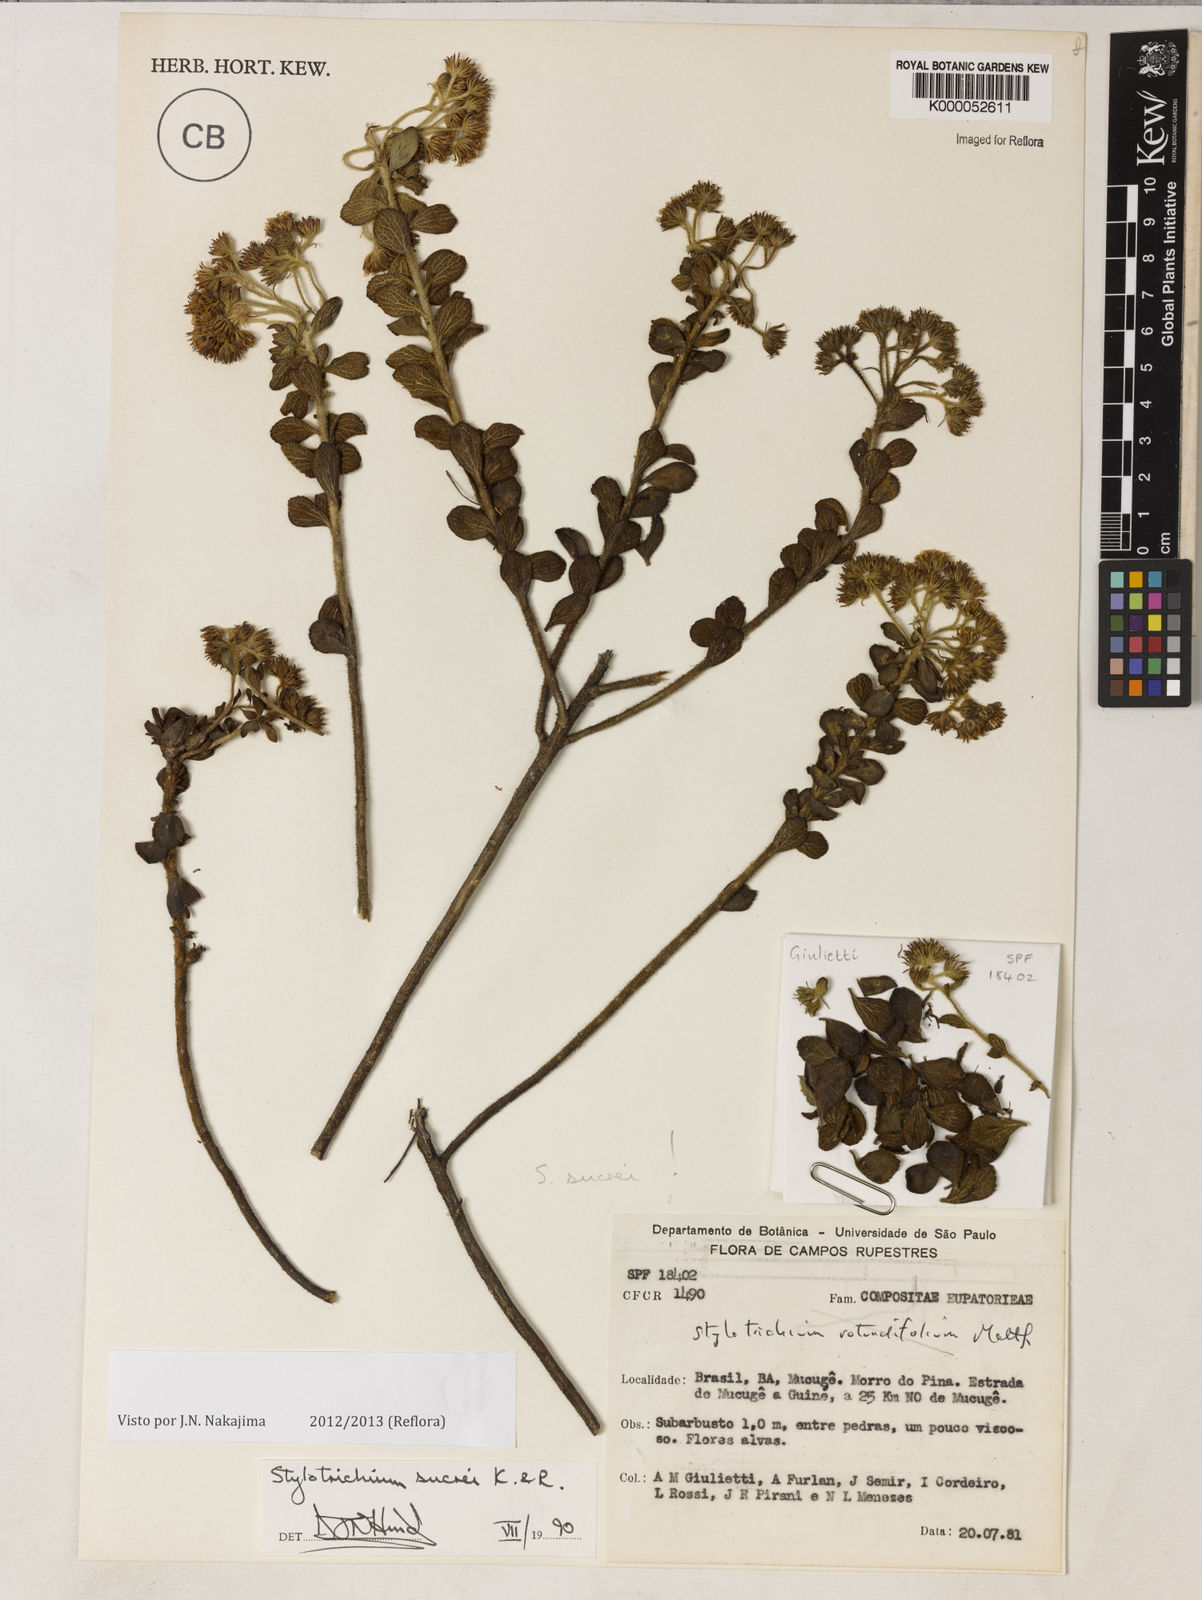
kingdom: Plantae
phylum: Tracheophyta
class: Magnoliopsida
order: Asterales
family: Asteraceae
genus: Stylotrichium
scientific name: Stylotrichium sucrei
